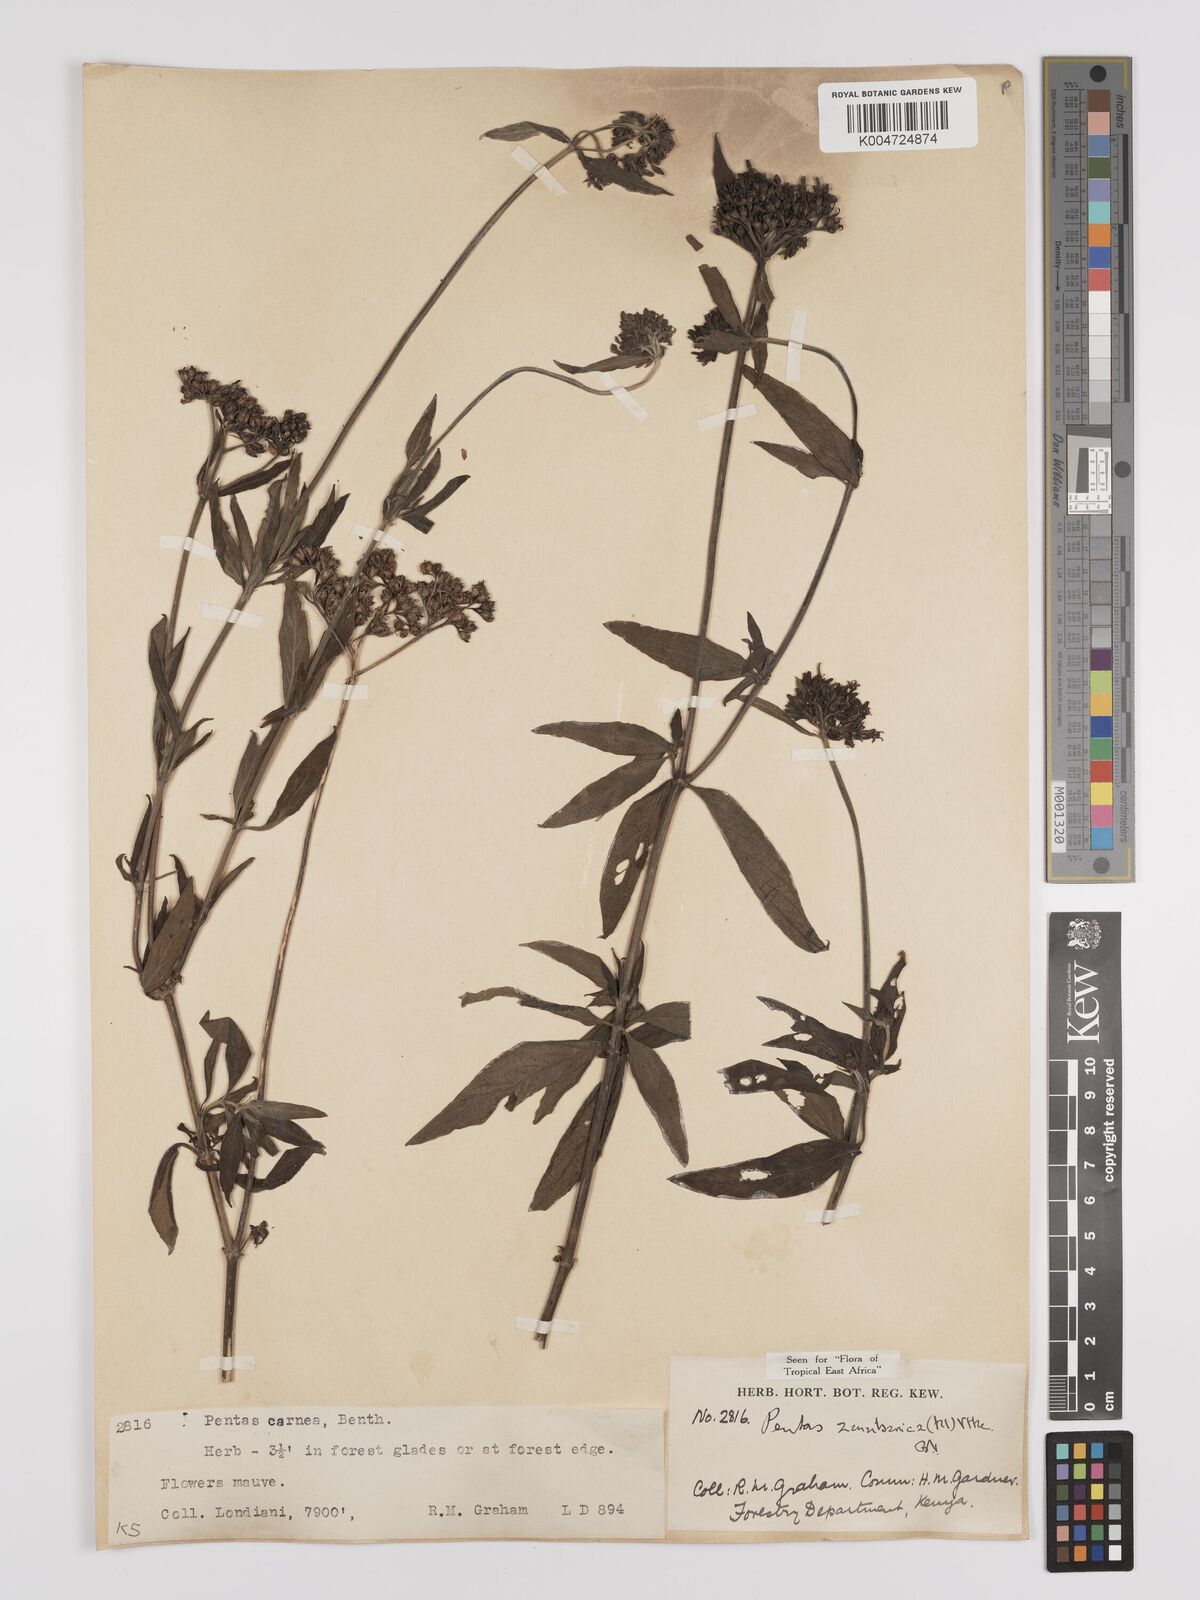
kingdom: Plantae
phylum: Tracheophyta
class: Magnoliopsida
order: Gentianales
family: Rubiaceae
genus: Pentas
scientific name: Pentas zanzibarica
